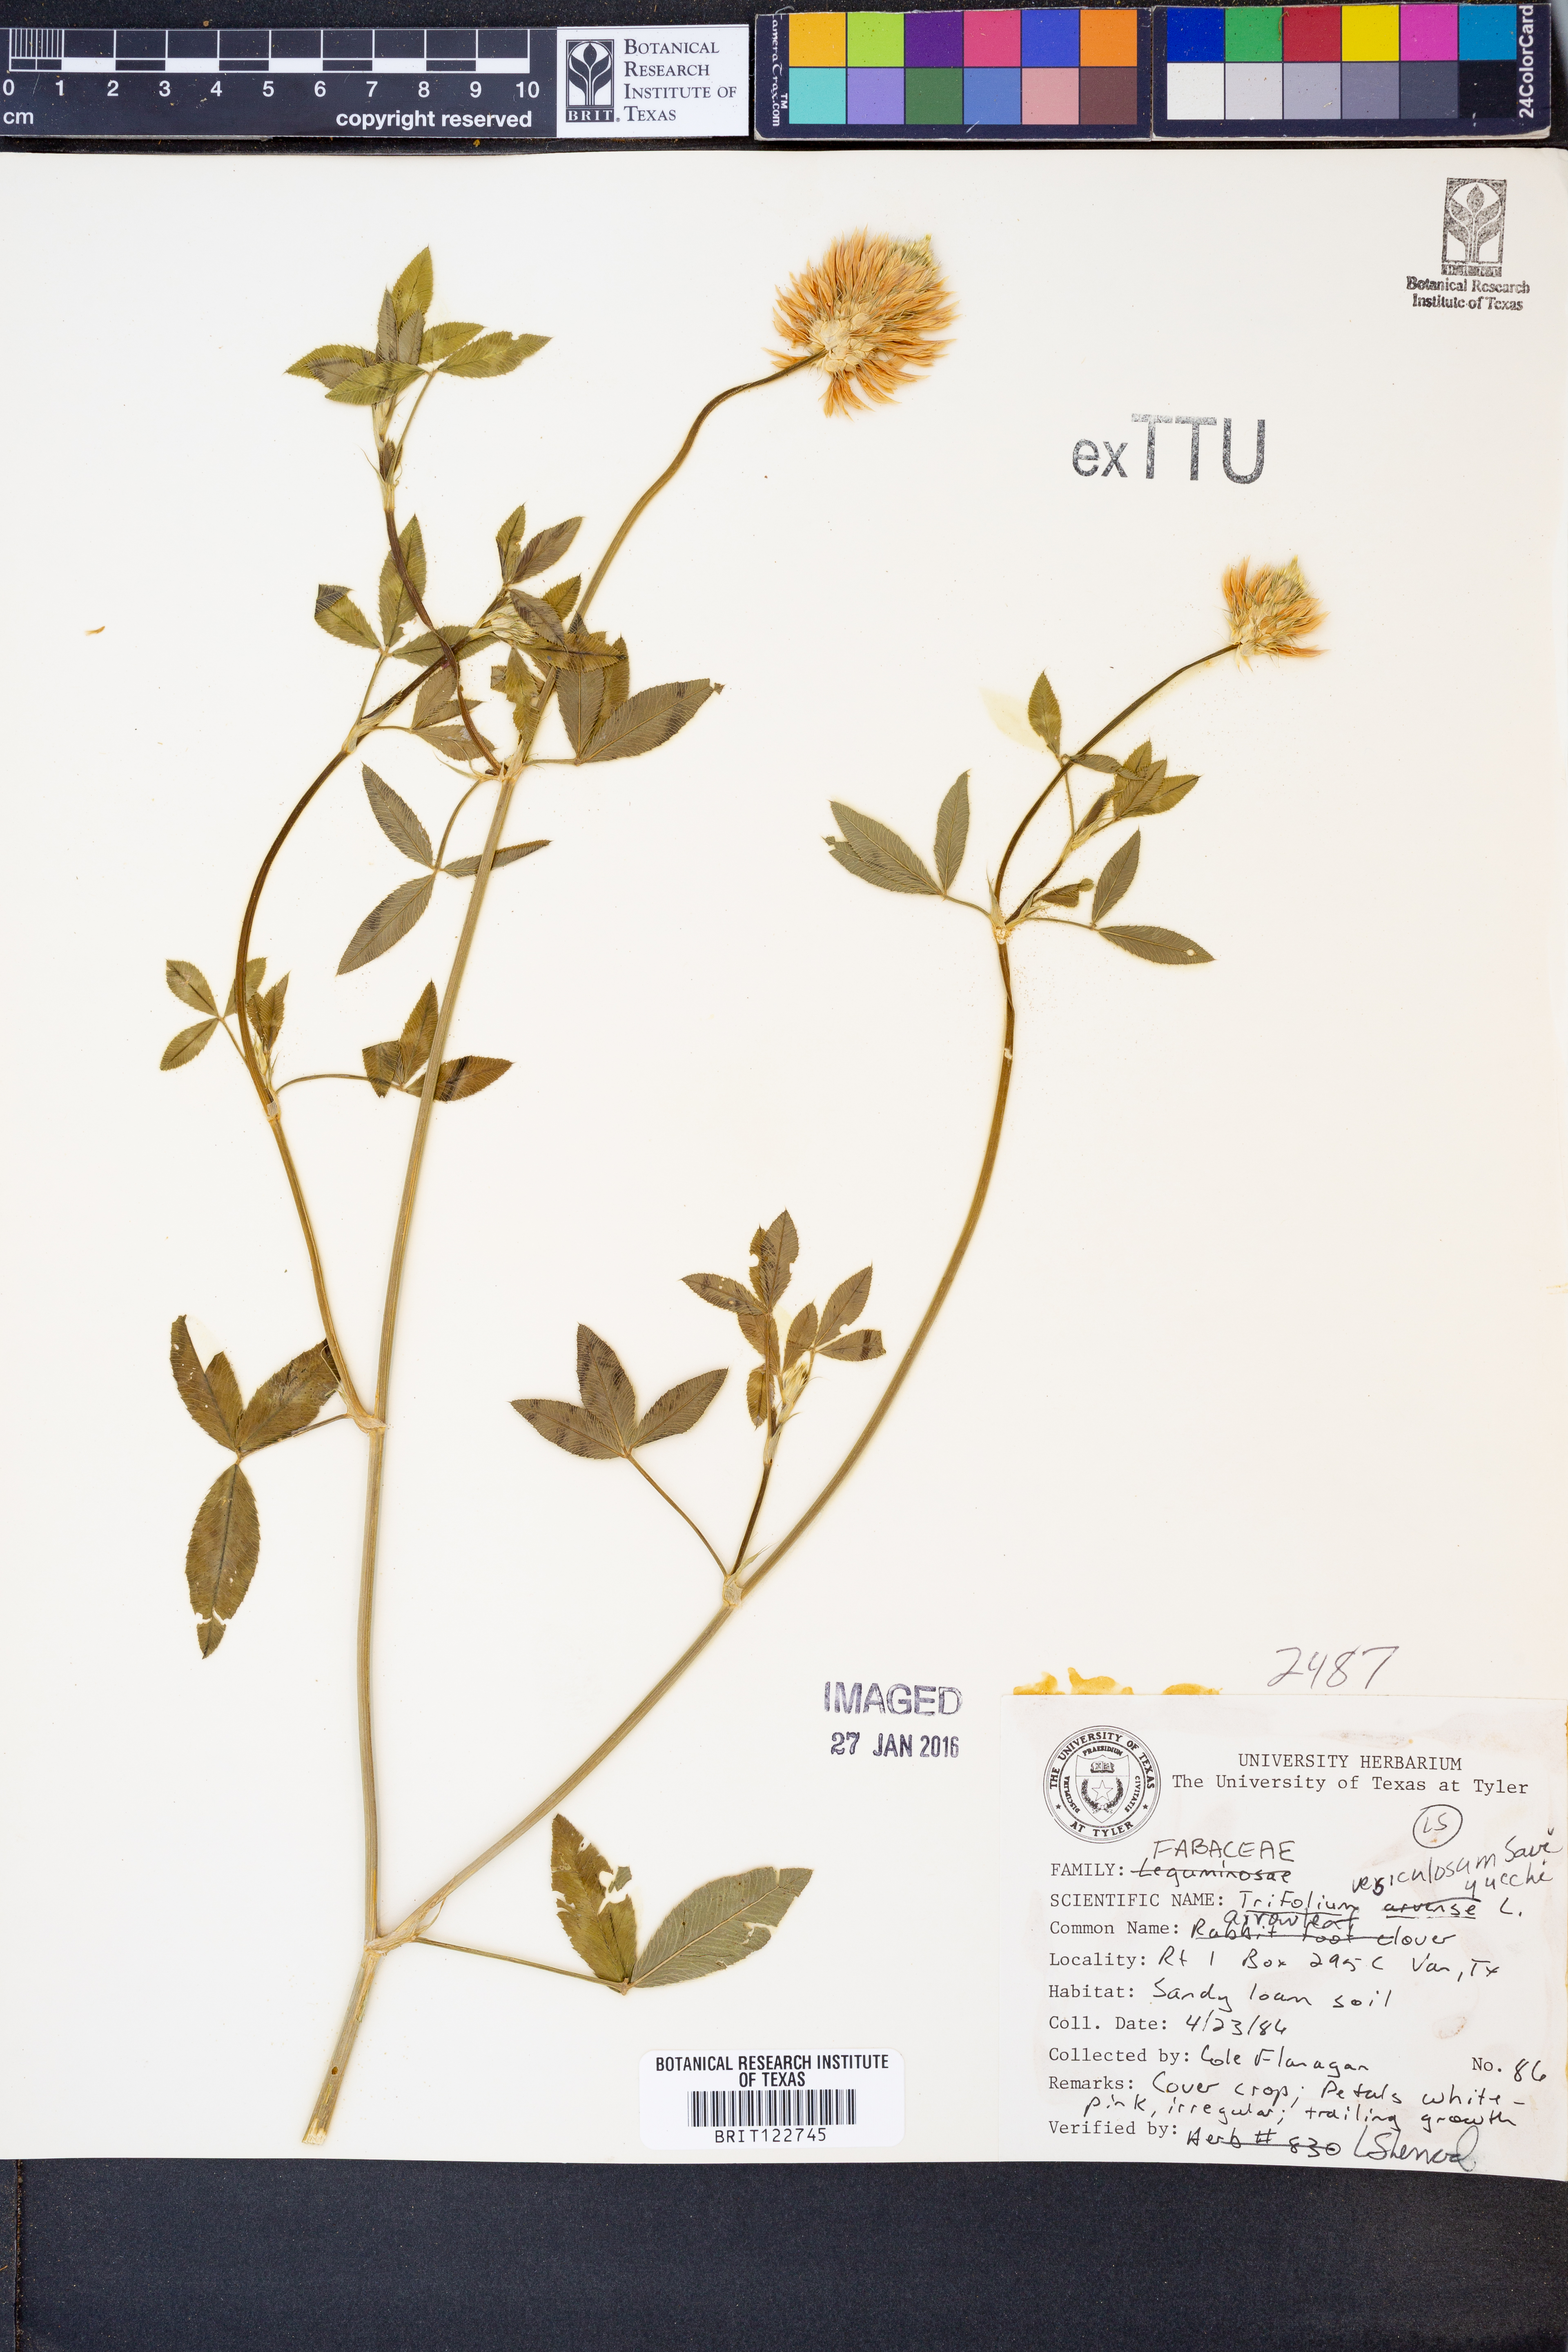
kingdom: Plantae
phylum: Tracheophyta
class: Magnoliopsida
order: Fabales
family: Fabaceae
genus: Trifolium
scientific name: Trifolium vesiculosum
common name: Arrowleaf clover
